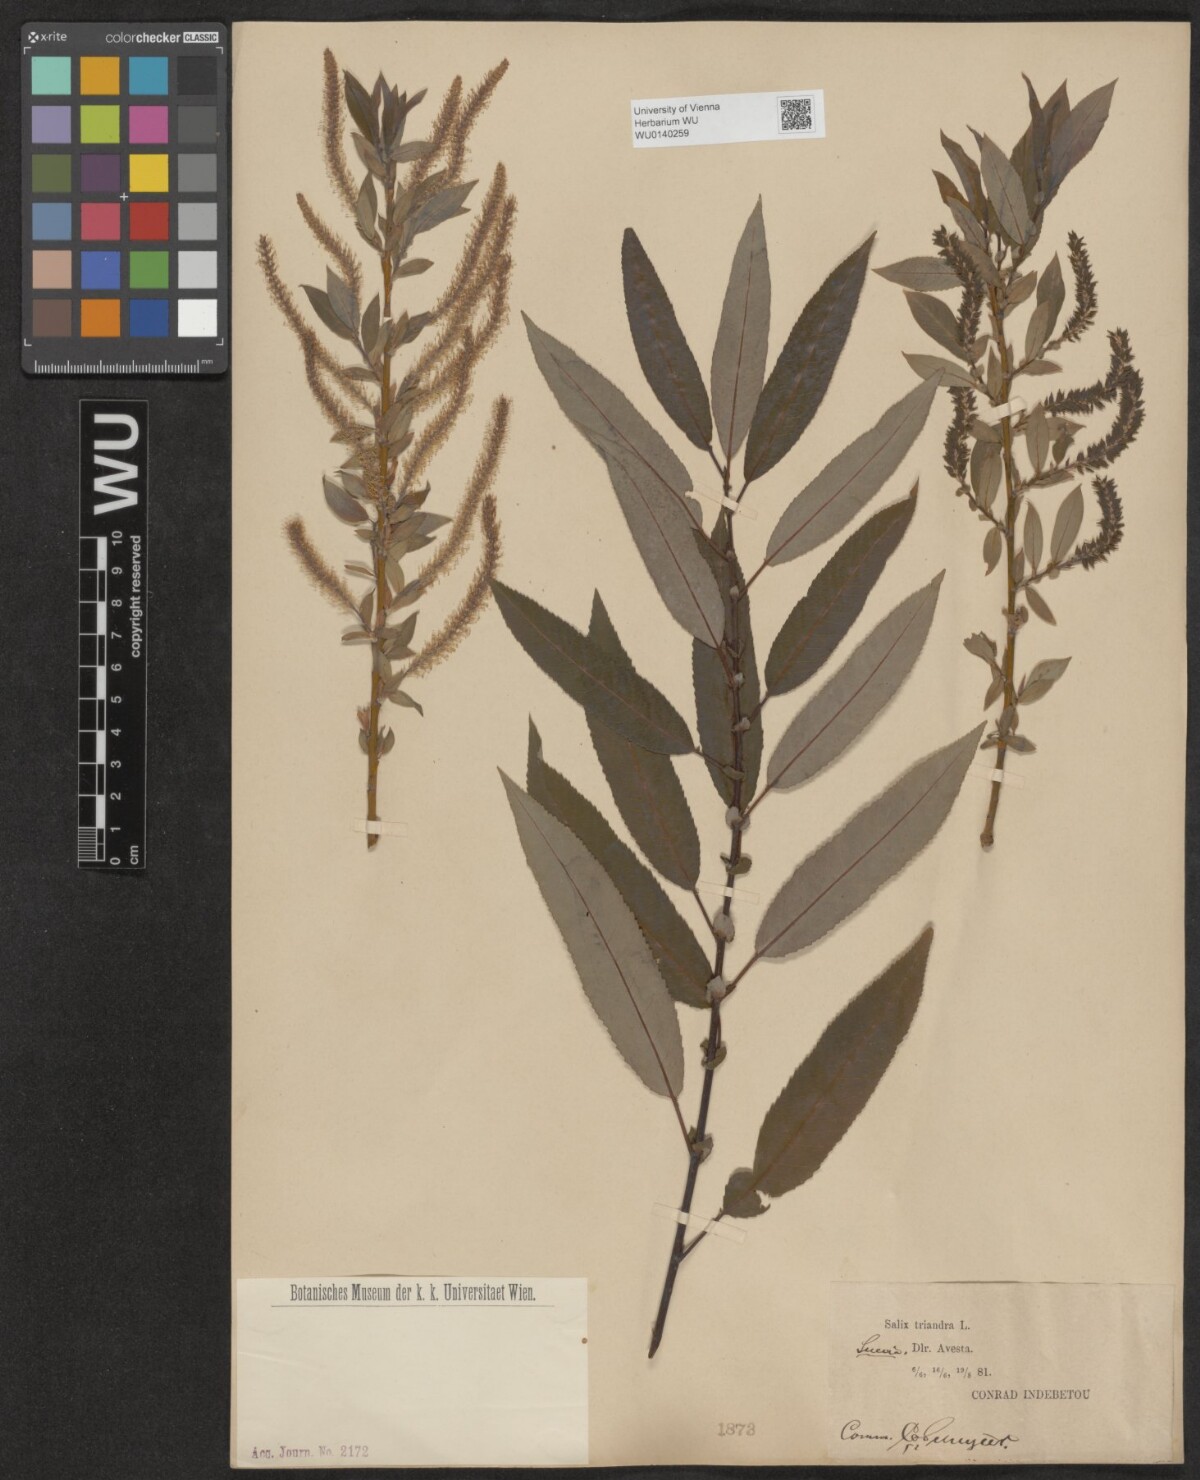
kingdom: Plantae
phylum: Tracheophyta
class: Magnoliopsida
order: Malpighiales
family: Salicaceae
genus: Salix
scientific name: Salix triandra
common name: Almond willow
